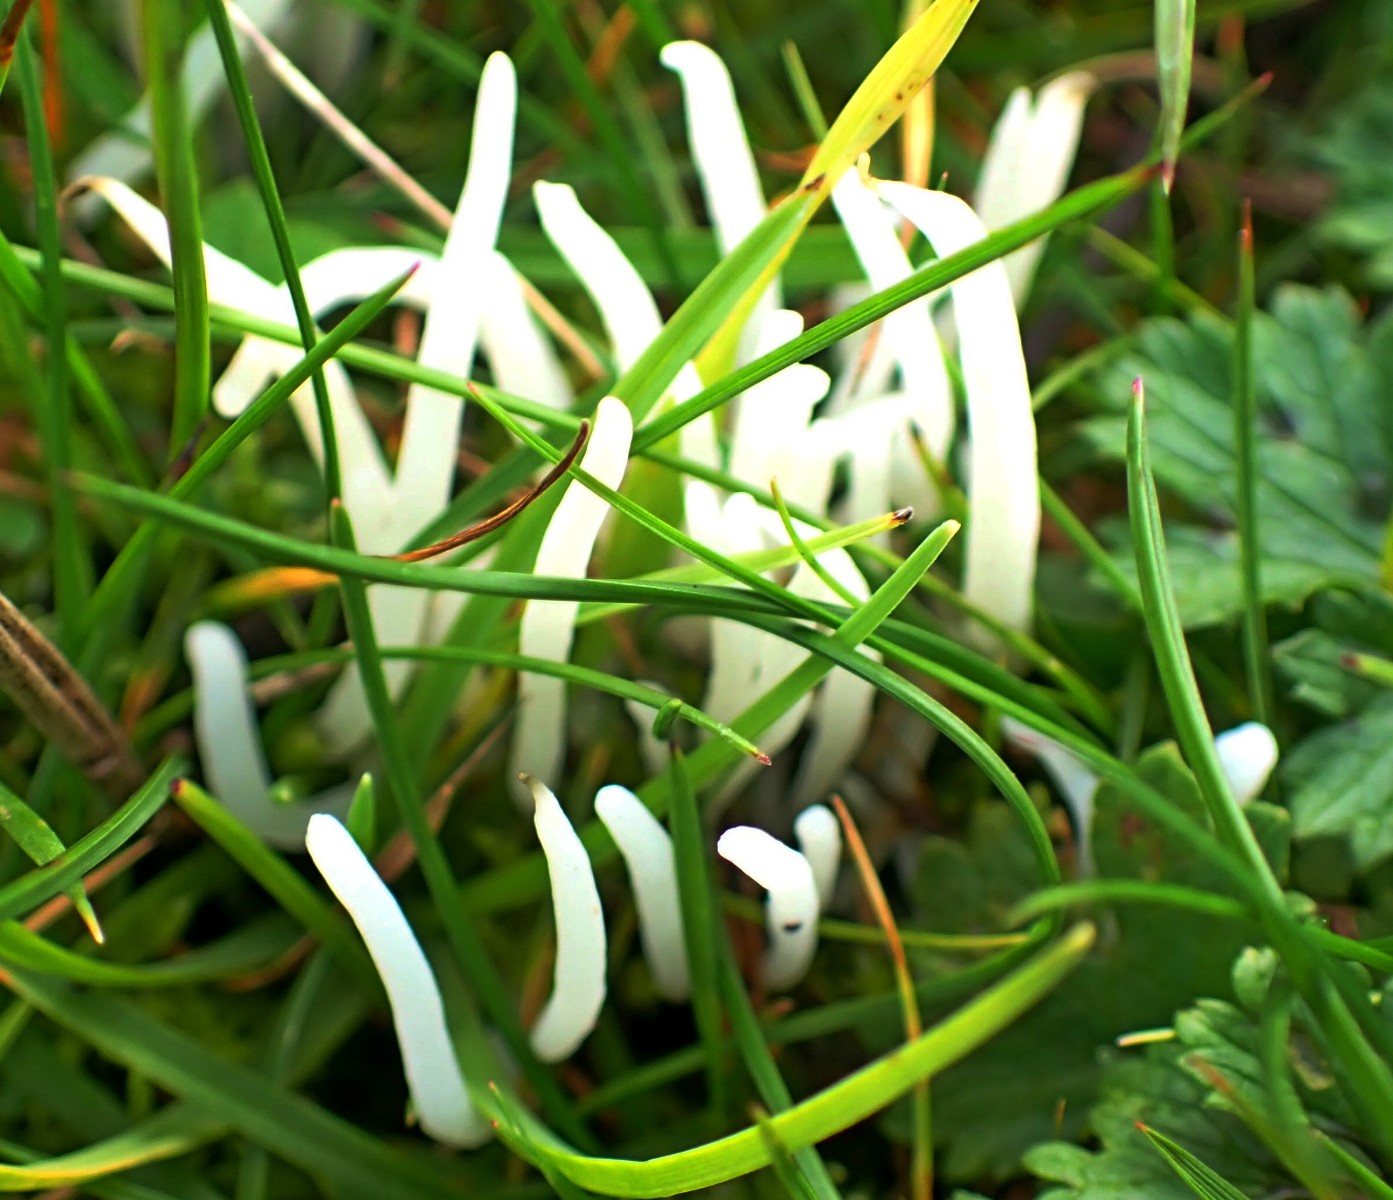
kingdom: Fungi
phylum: Basidiomycota
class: Agaricomycetes
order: Agaricales
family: Clavariaceae
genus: Clavaria
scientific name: Clavaria
